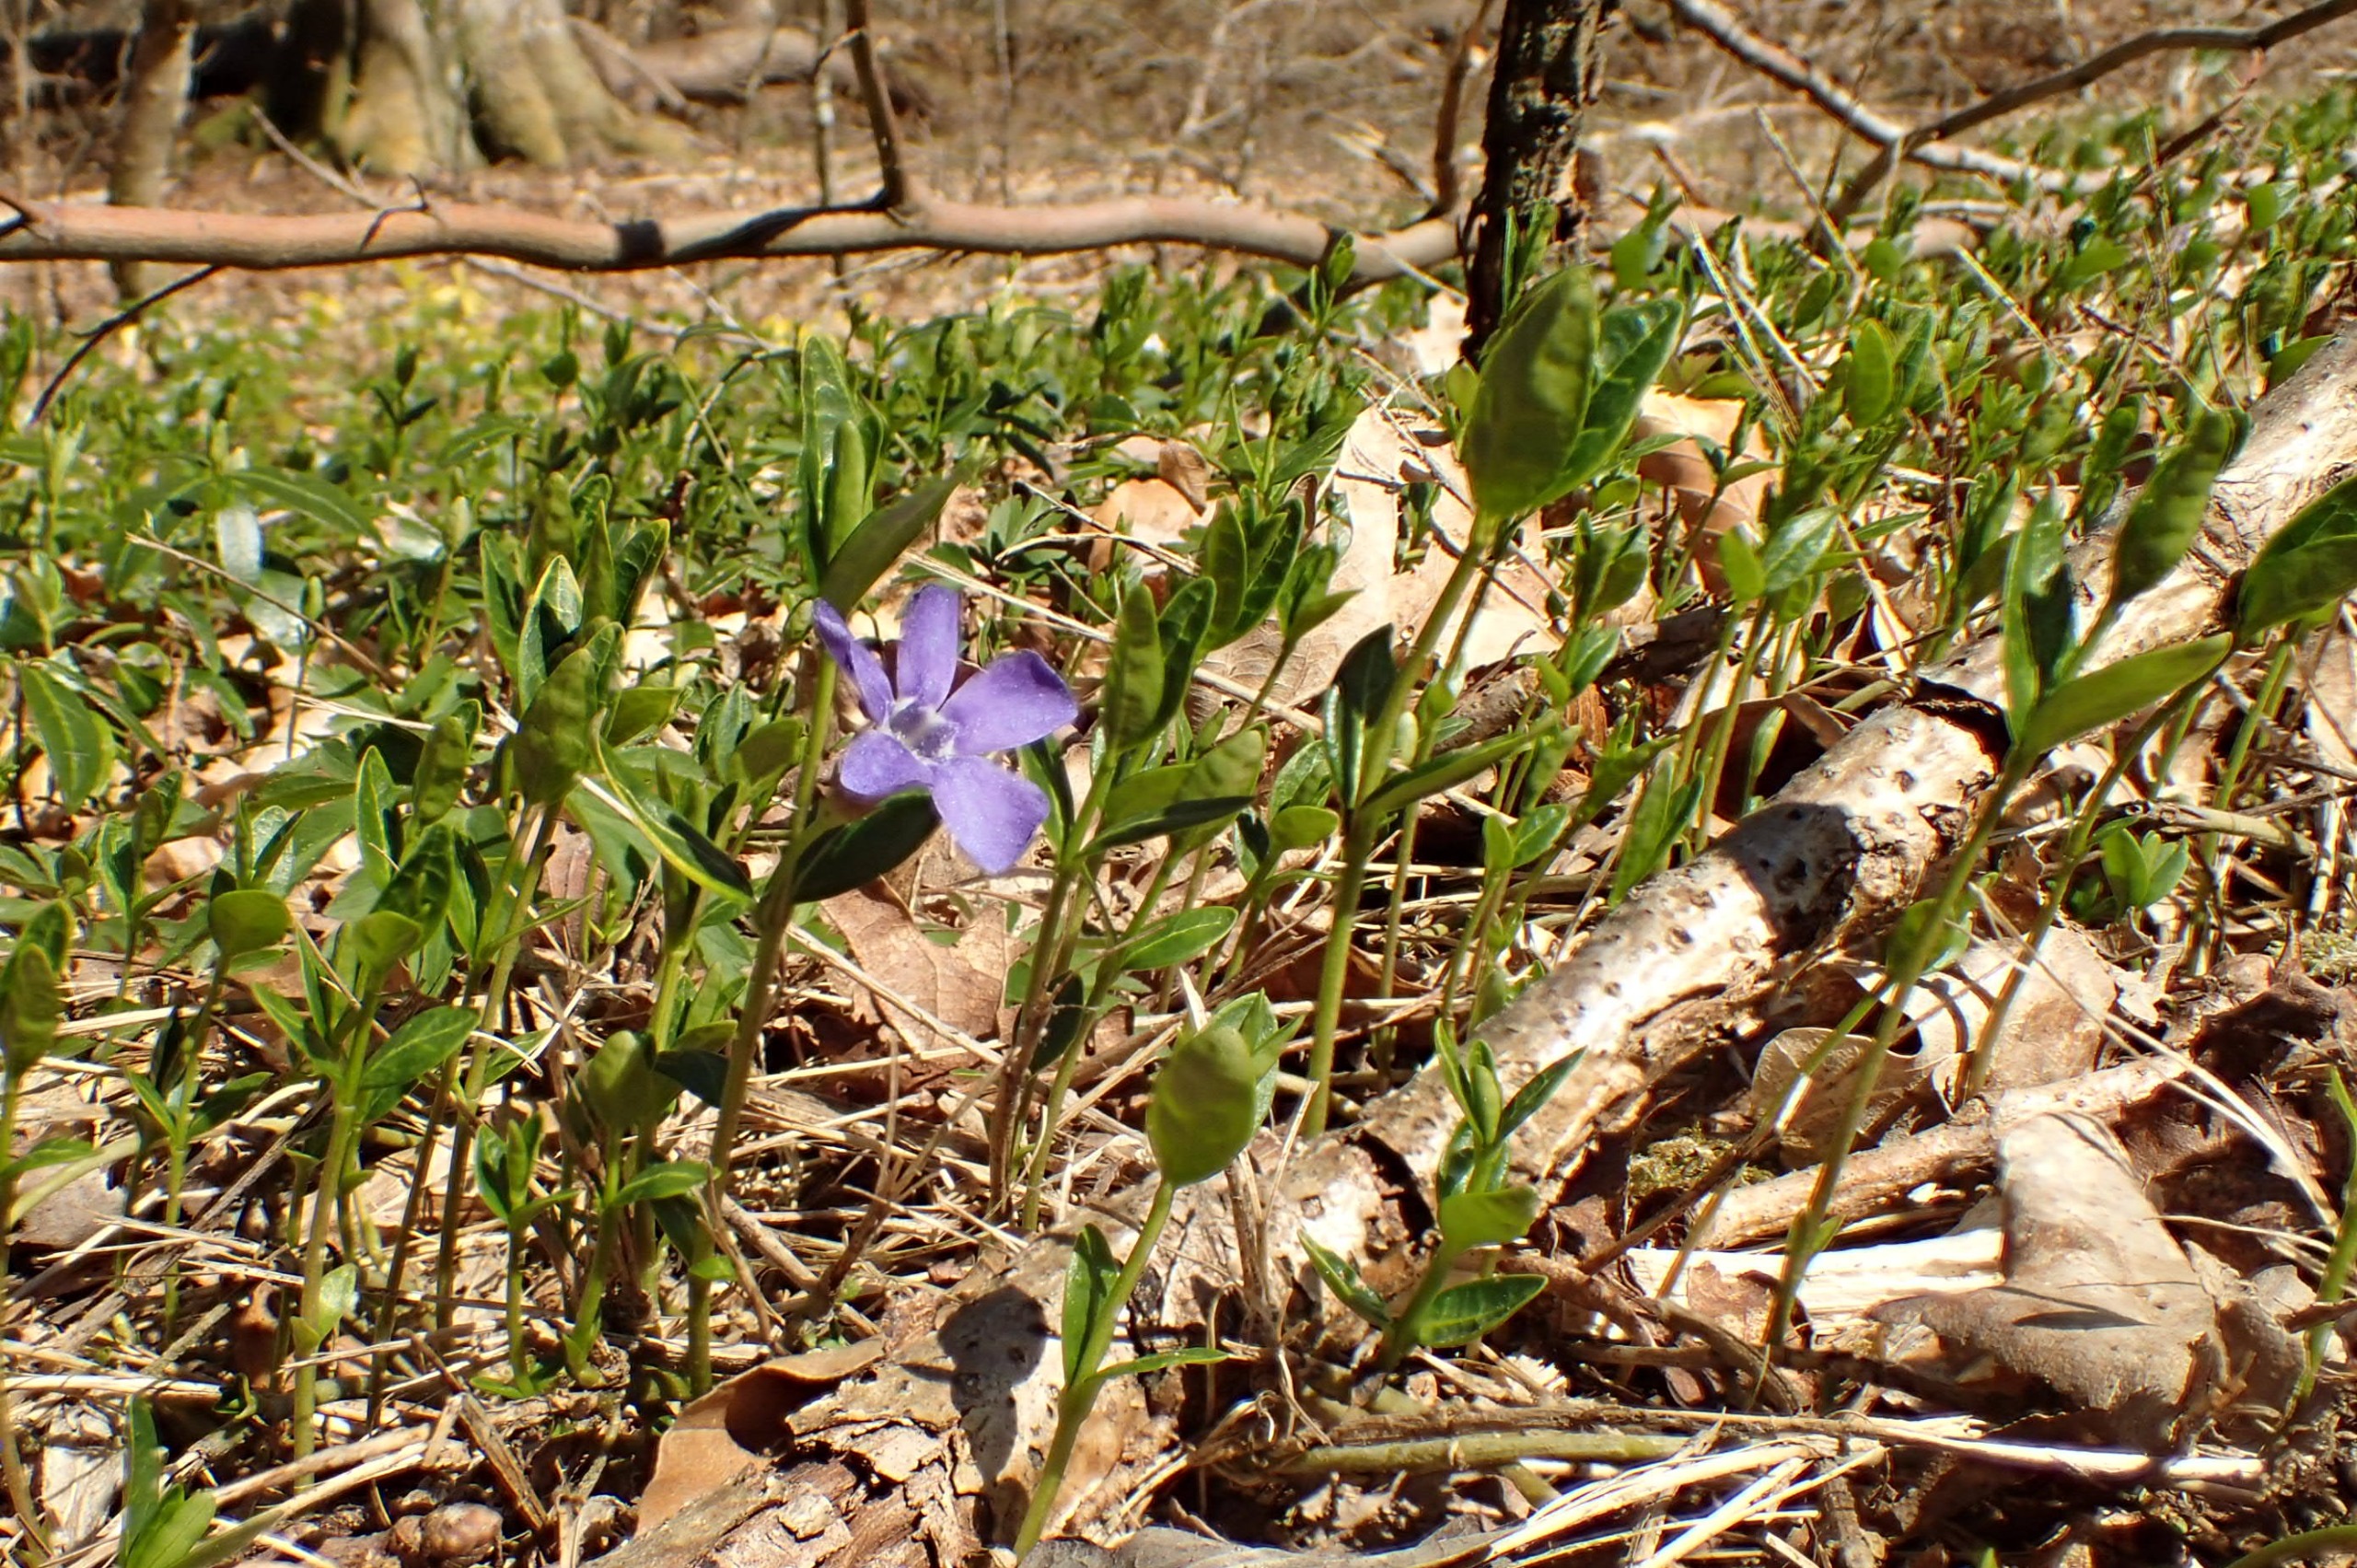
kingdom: Plantae
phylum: Tracheophyta
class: Magnoliopsida
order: Gentianales
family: Apocynaceae
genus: Vinca
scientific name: Vinca minor
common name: Liden singrøn
